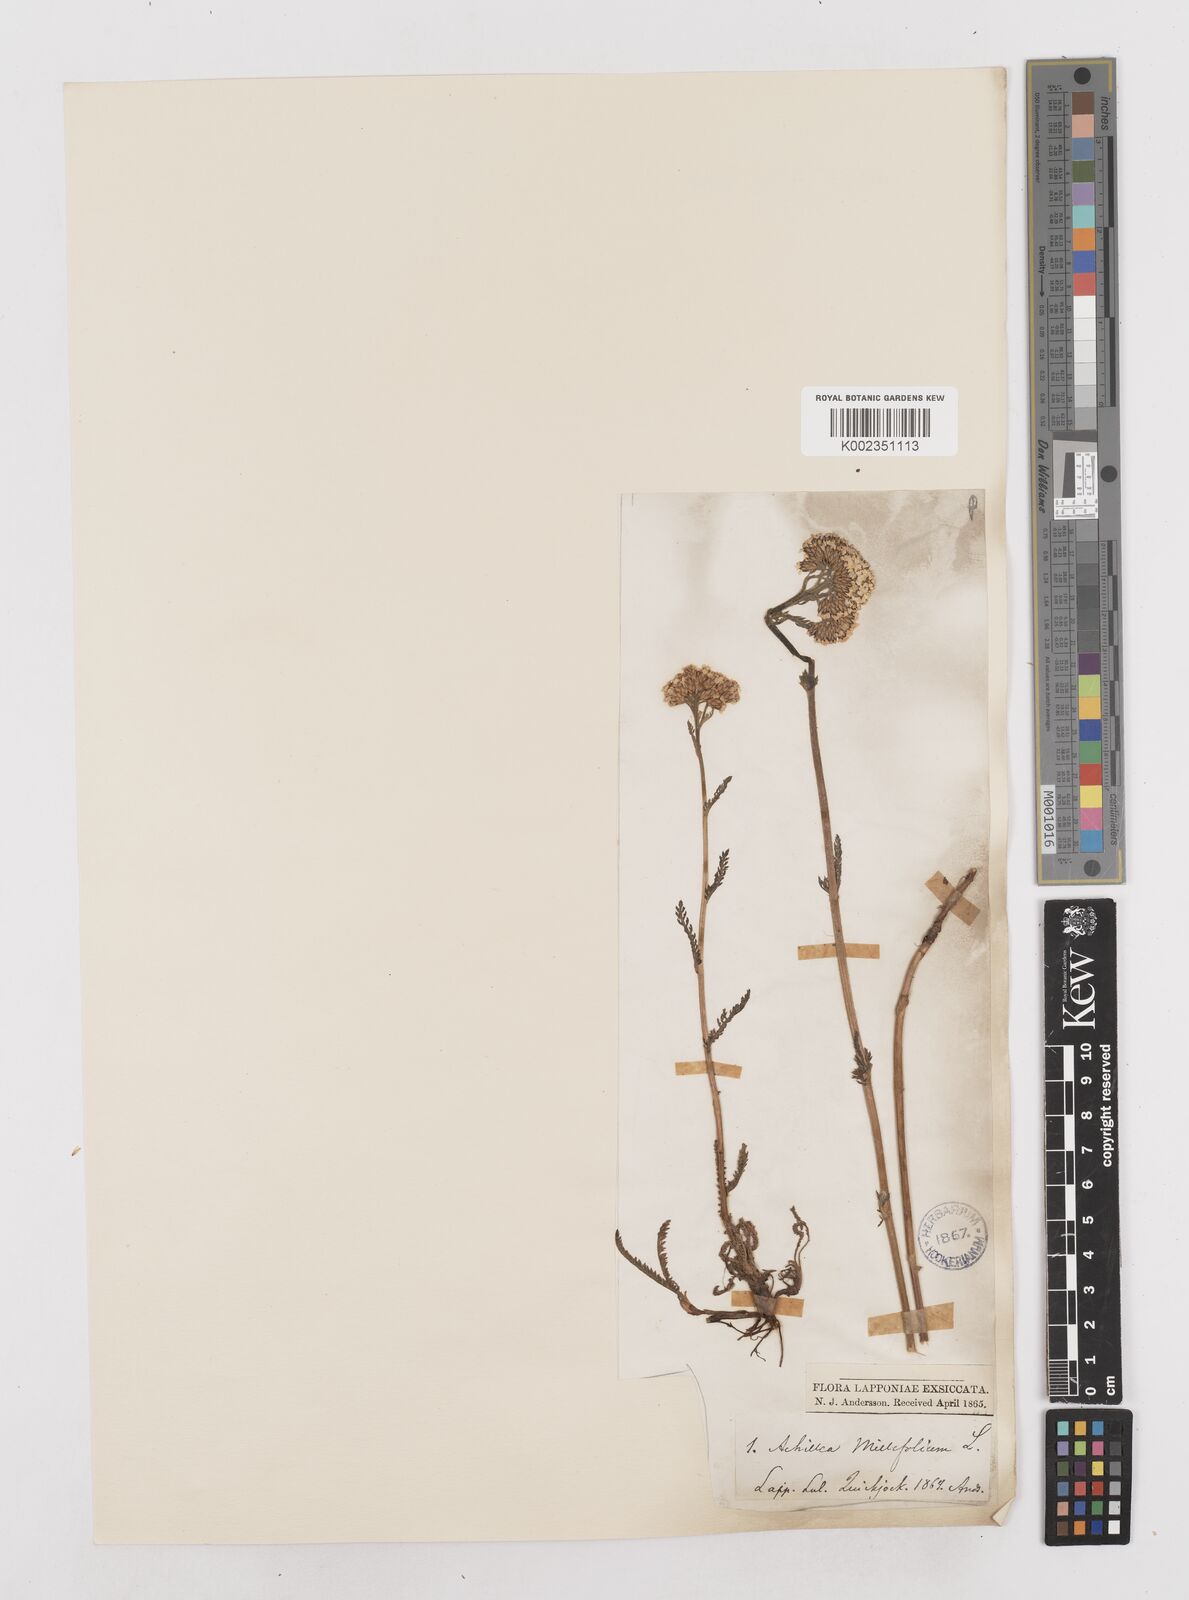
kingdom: Plantae
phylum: Tracheophyta
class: Magnoliopsida
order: Asterales
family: Asteraceae
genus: Achillea
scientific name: Achillea millefolium
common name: Yarrow
